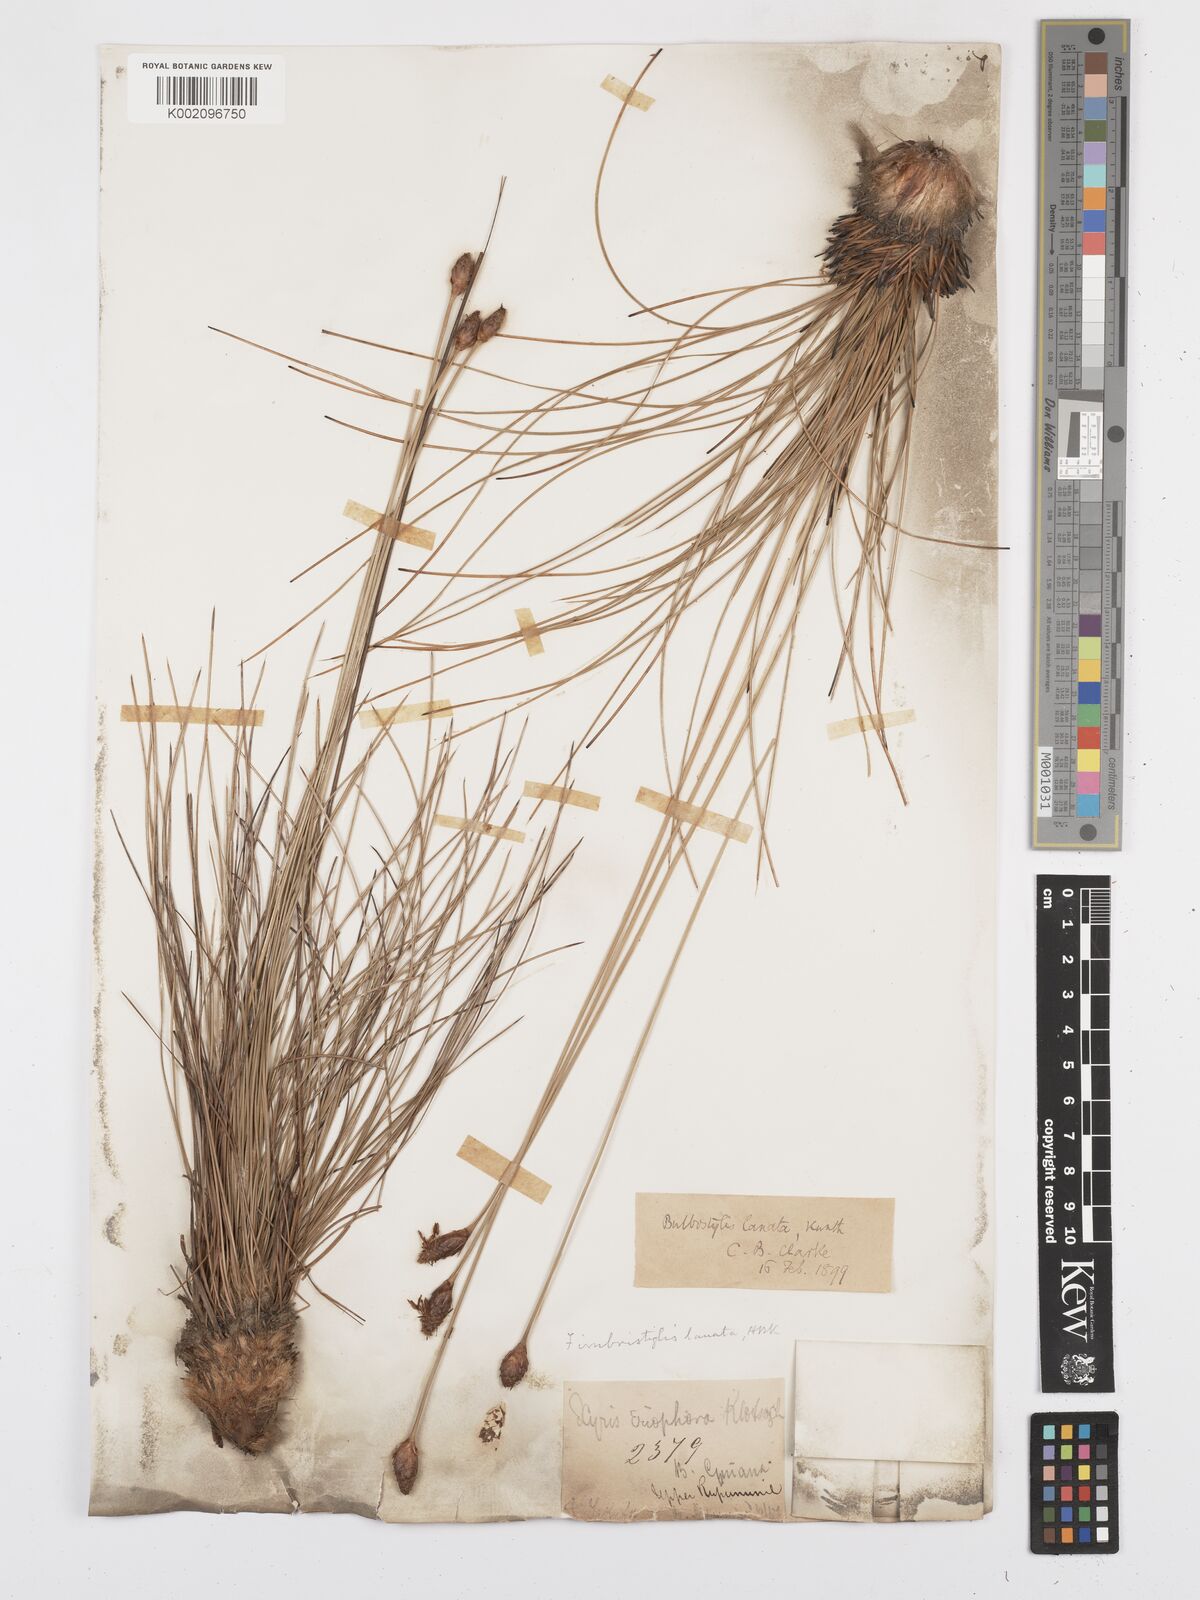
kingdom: Plantae
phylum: Tracheophyta
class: Liliopsida
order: Poales
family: Cyperaceae
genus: Bulbostylis
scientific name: Bulbostylis
